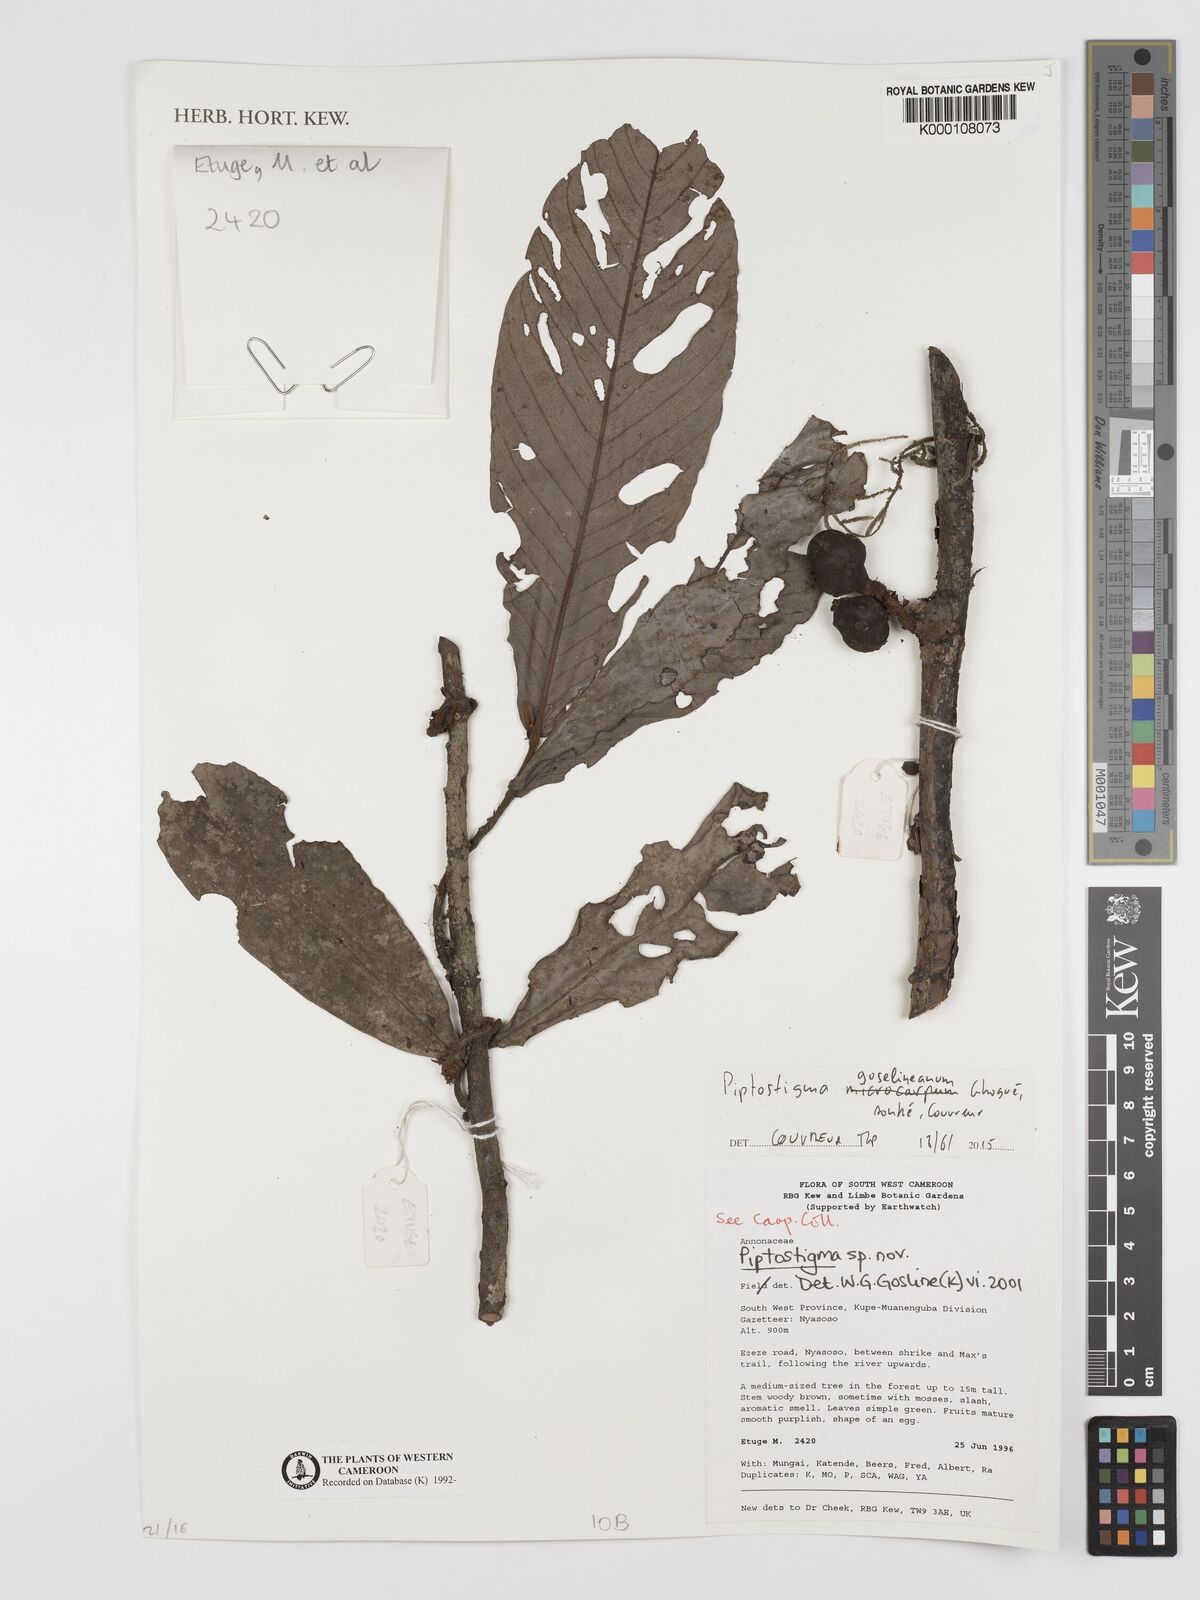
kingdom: Plantae
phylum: Tracheophyta
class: Magnoliopsida
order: Magnoliales
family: Annonaceae
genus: Piptostigma
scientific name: Piptostigma
